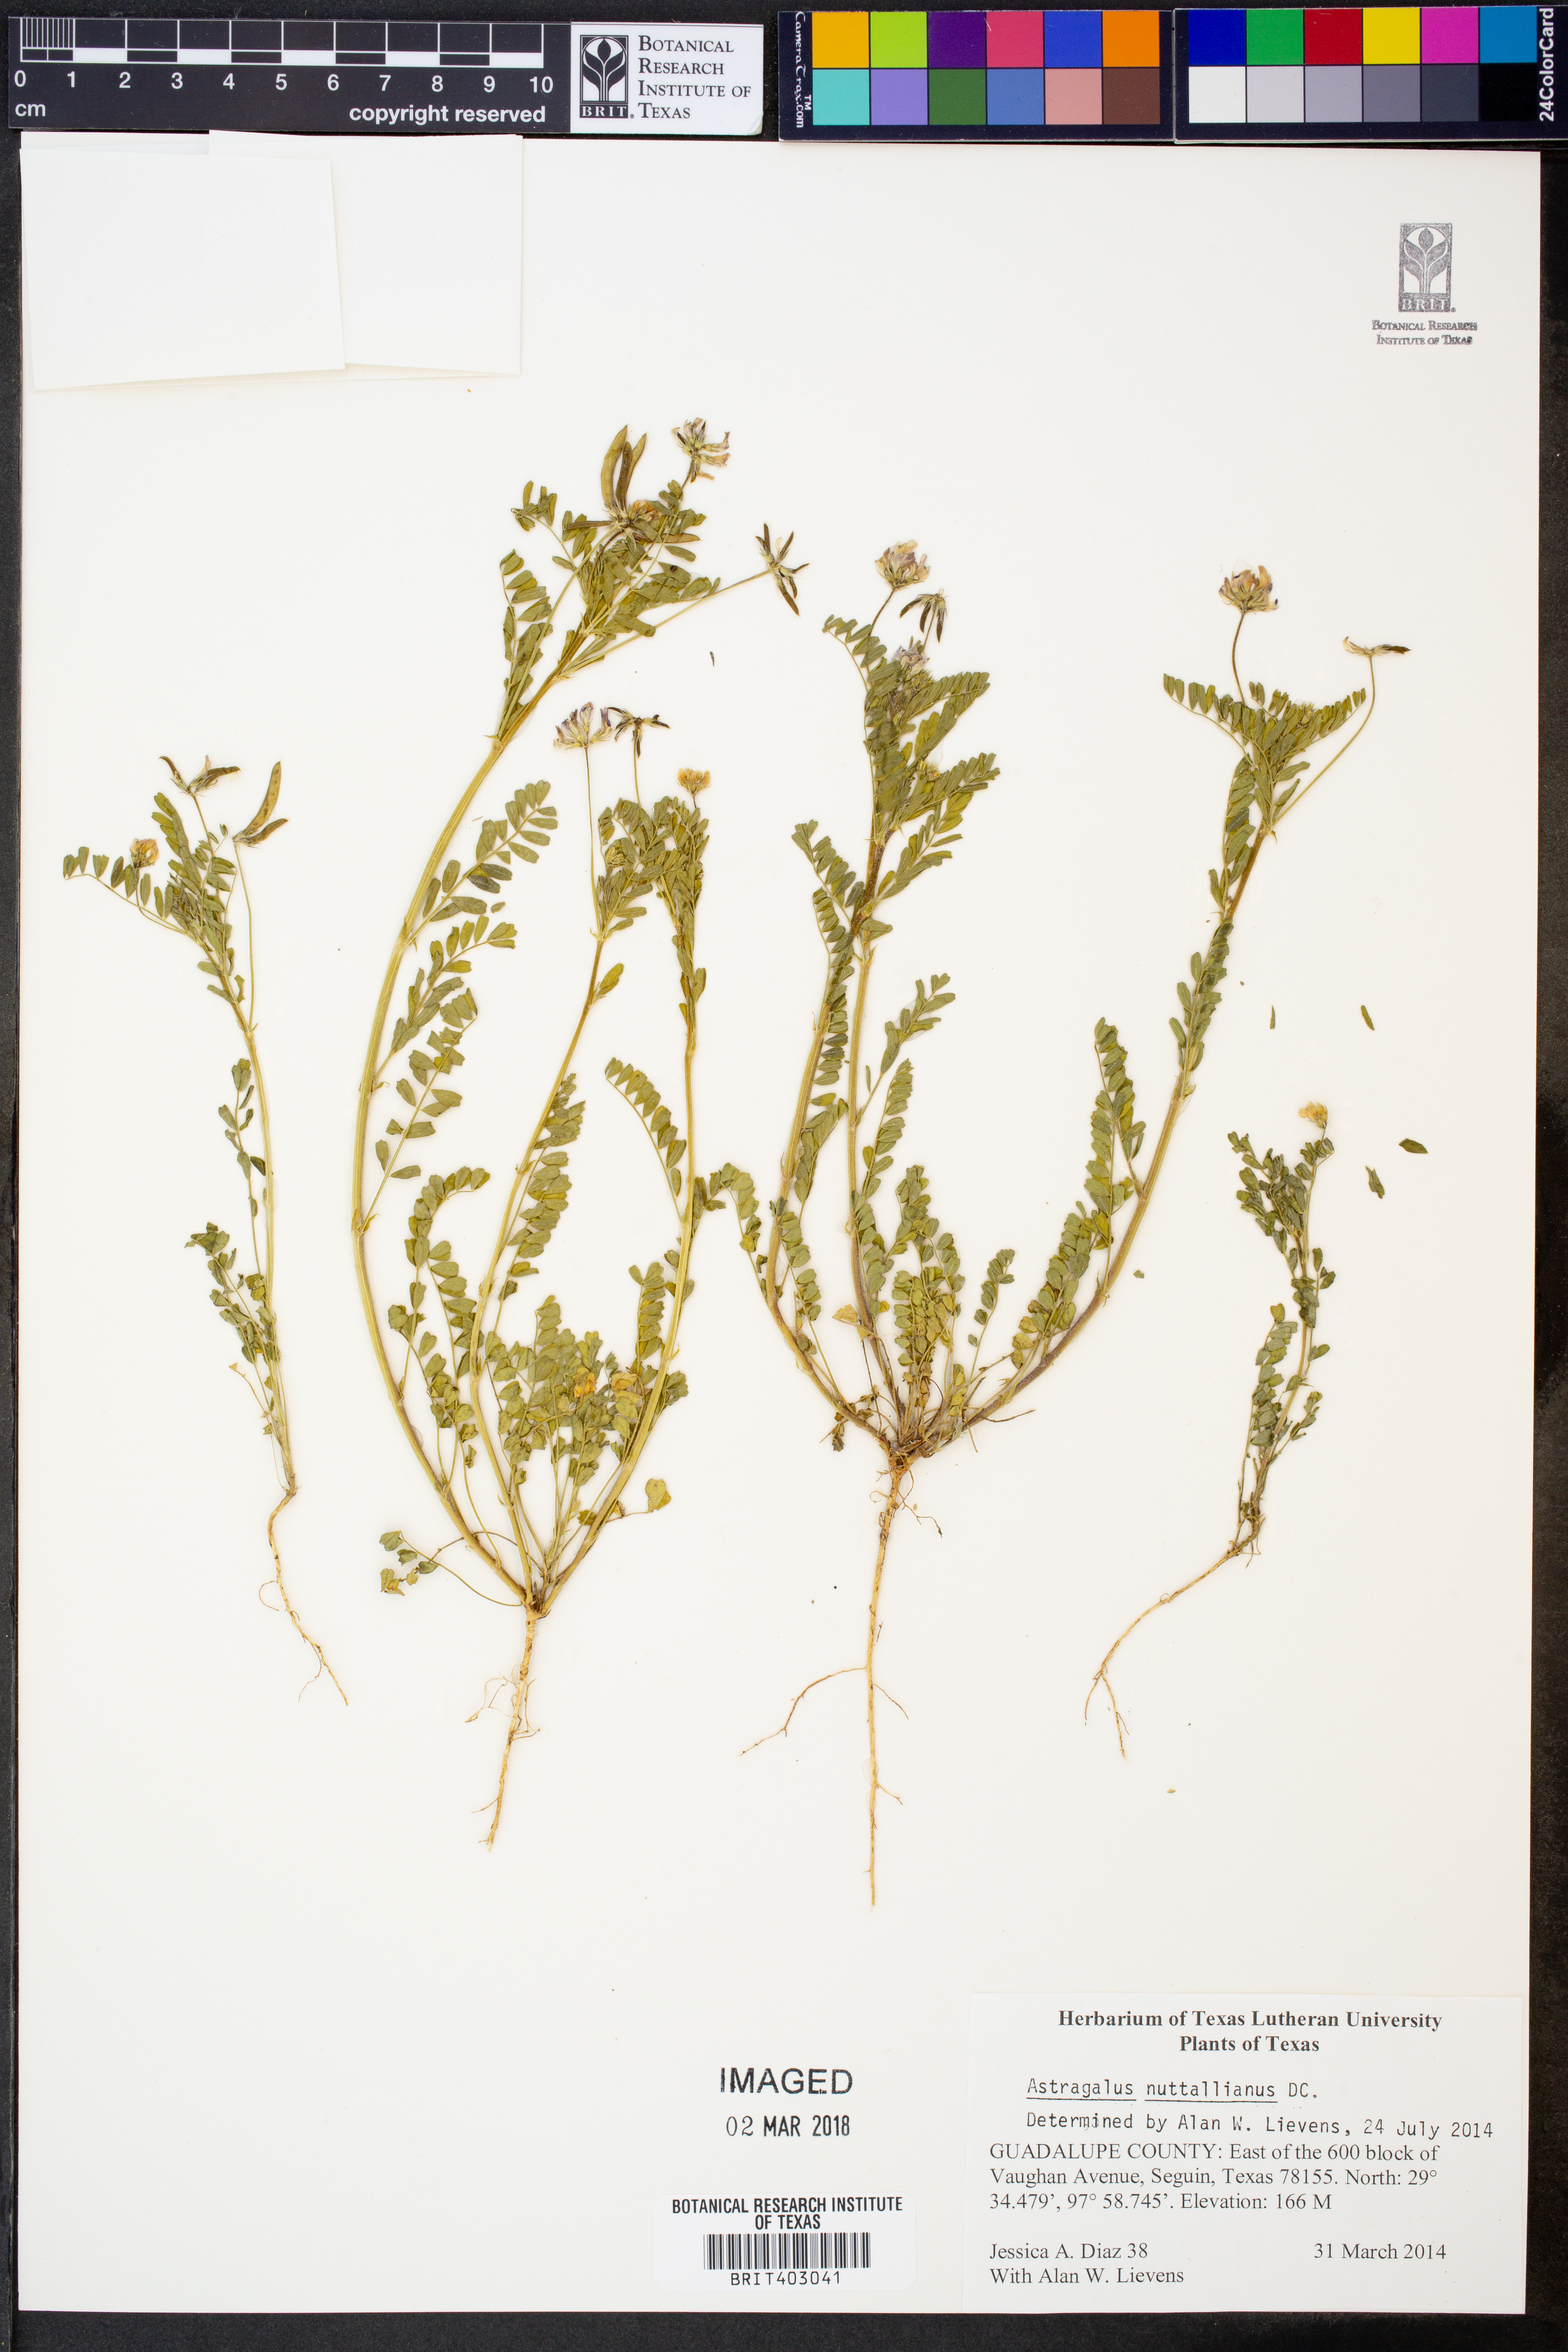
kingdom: Plantae
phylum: Tracheophyta
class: Magnoliopsida
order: Fabales
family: Fabaceae
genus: Astragalus
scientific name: Astragalus nuttallianus
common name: Smallflowered milkvetch
